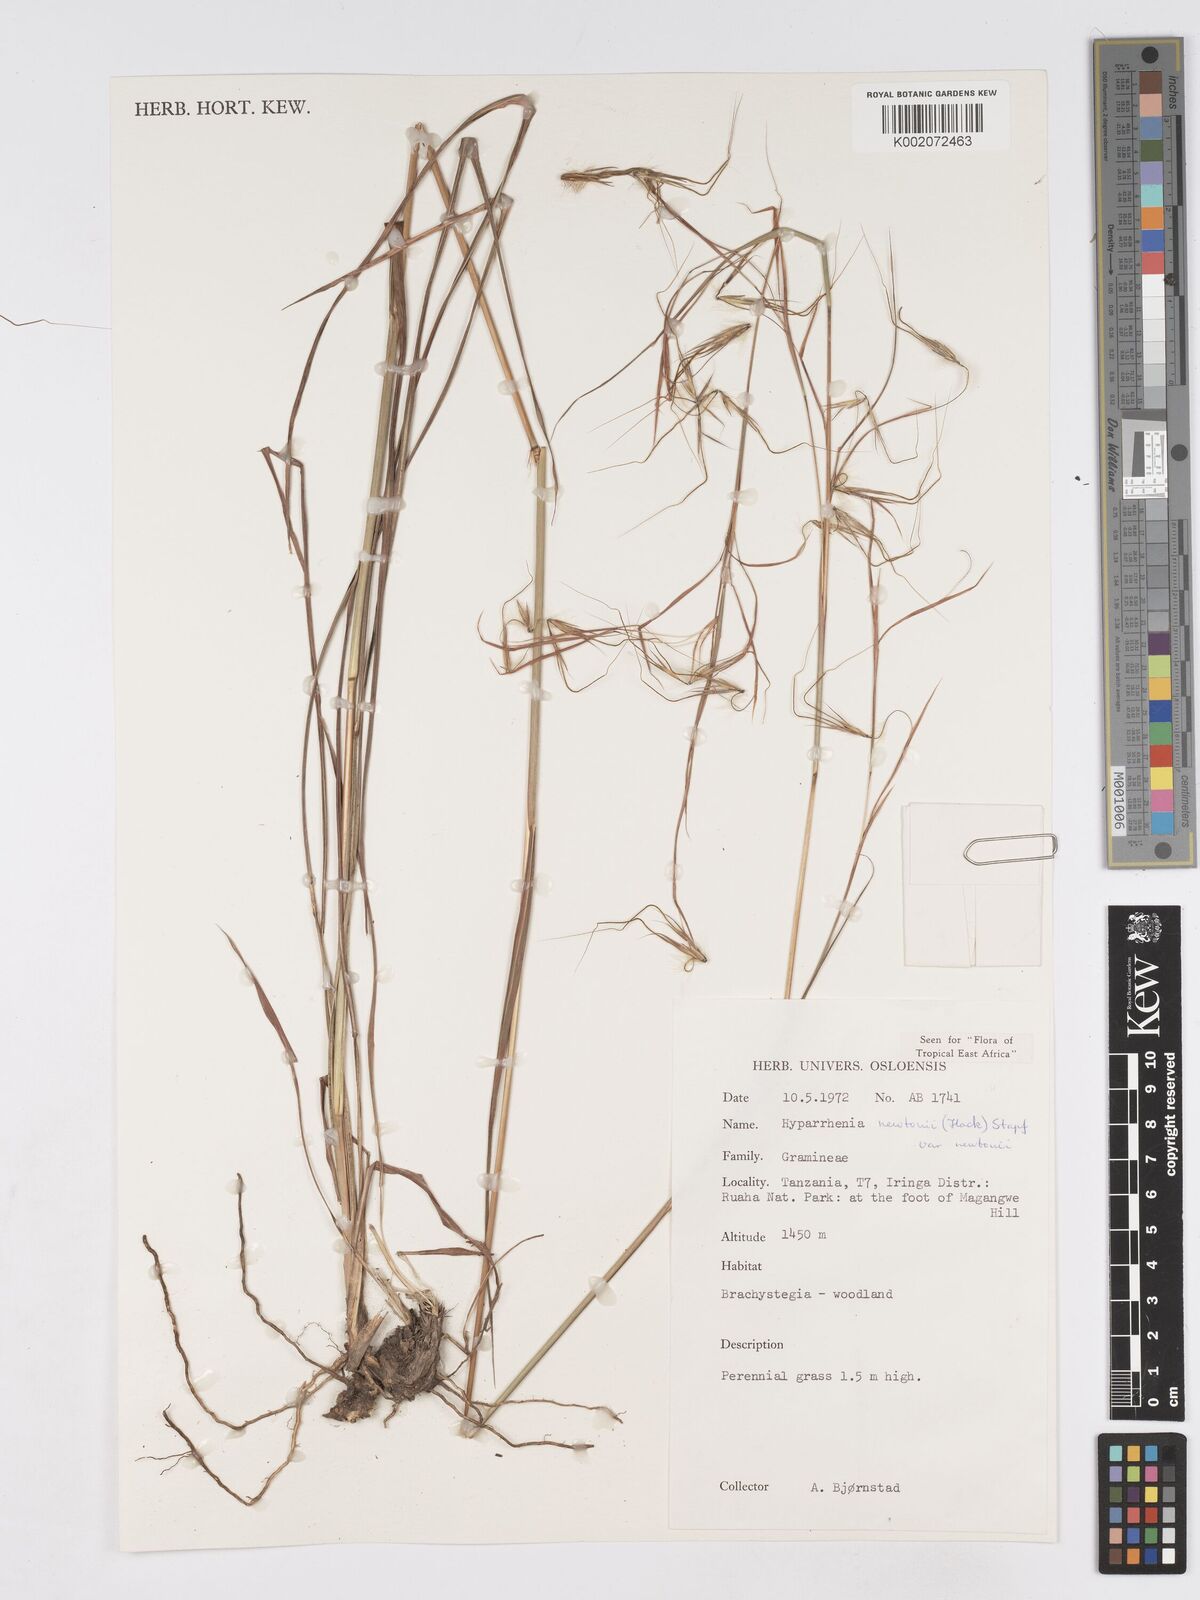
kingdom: Plantae
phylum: Tracheophyta
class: Liliopsida
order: Poales
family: Poaceae
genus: Hyparrhenia
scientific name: Hyparrhenia newtonii
